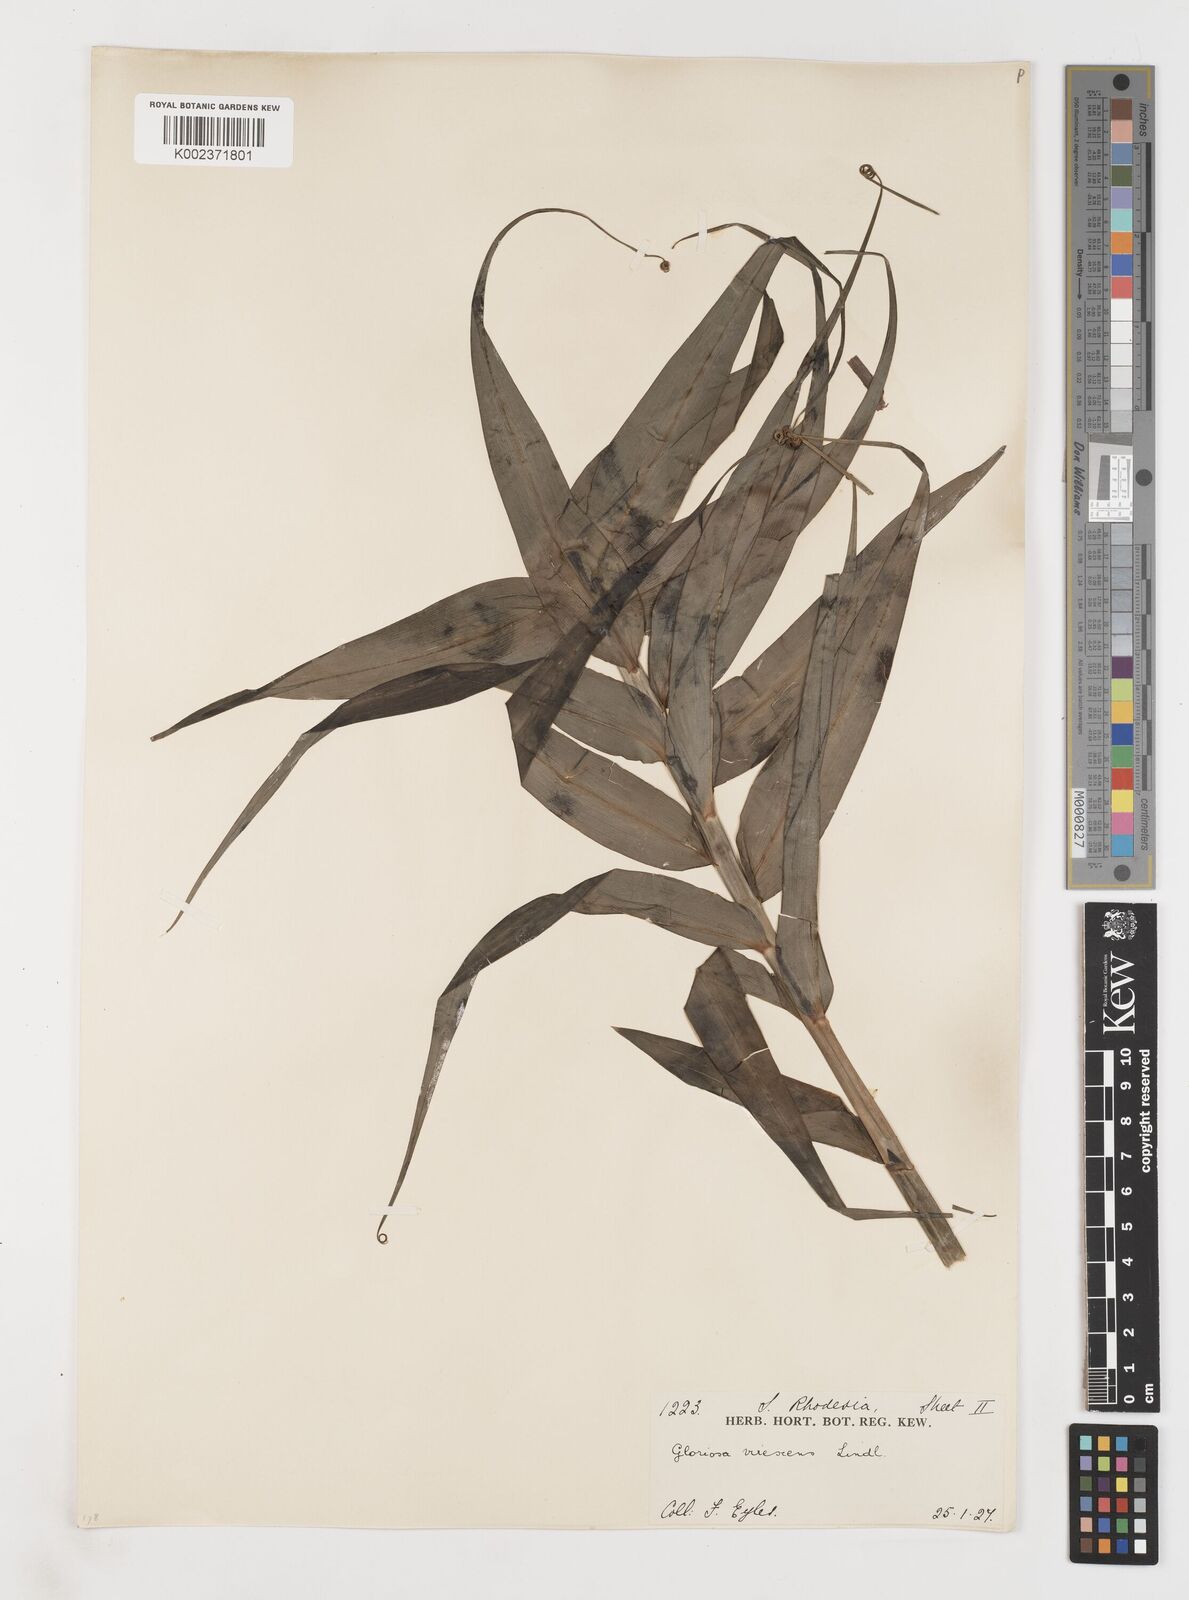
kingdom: Plantae
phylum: Tracheophyta
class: Liliopsida
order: Liliales
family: Colchicaceae
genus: Gloriosa
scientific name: Gloriosa simplex
